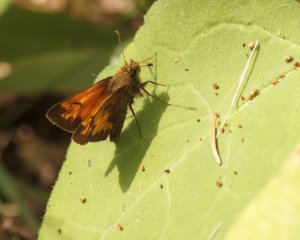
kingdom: Animalia
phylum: Arthropoda
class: Insecta
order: Lepidoptera
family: Hesperiidae
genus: Lon
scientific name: Lon hobomok
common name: Hobomok Skipper
